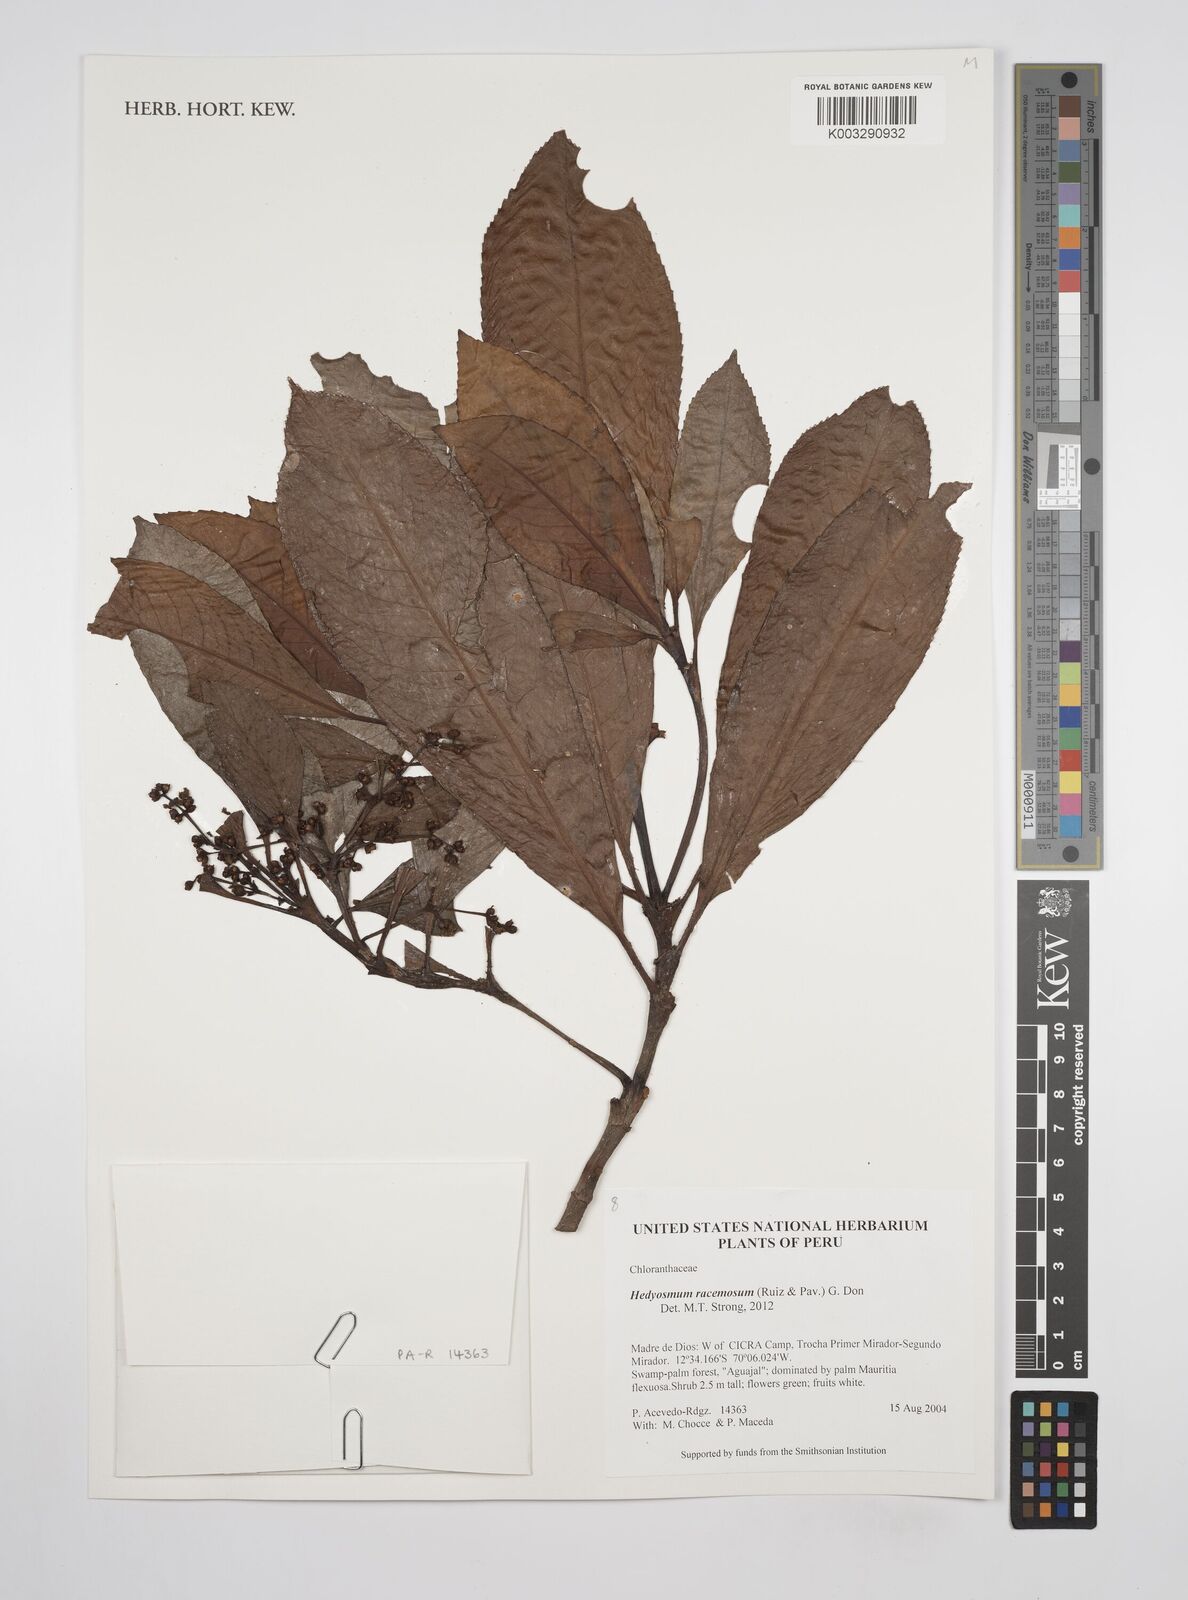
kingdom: Plantae
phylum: Tracheophyta
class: Magnoliopsida
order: Chloranthales
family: Chloranthaceae
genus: Hedyosmum
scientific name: Hedyosmum racemosum
